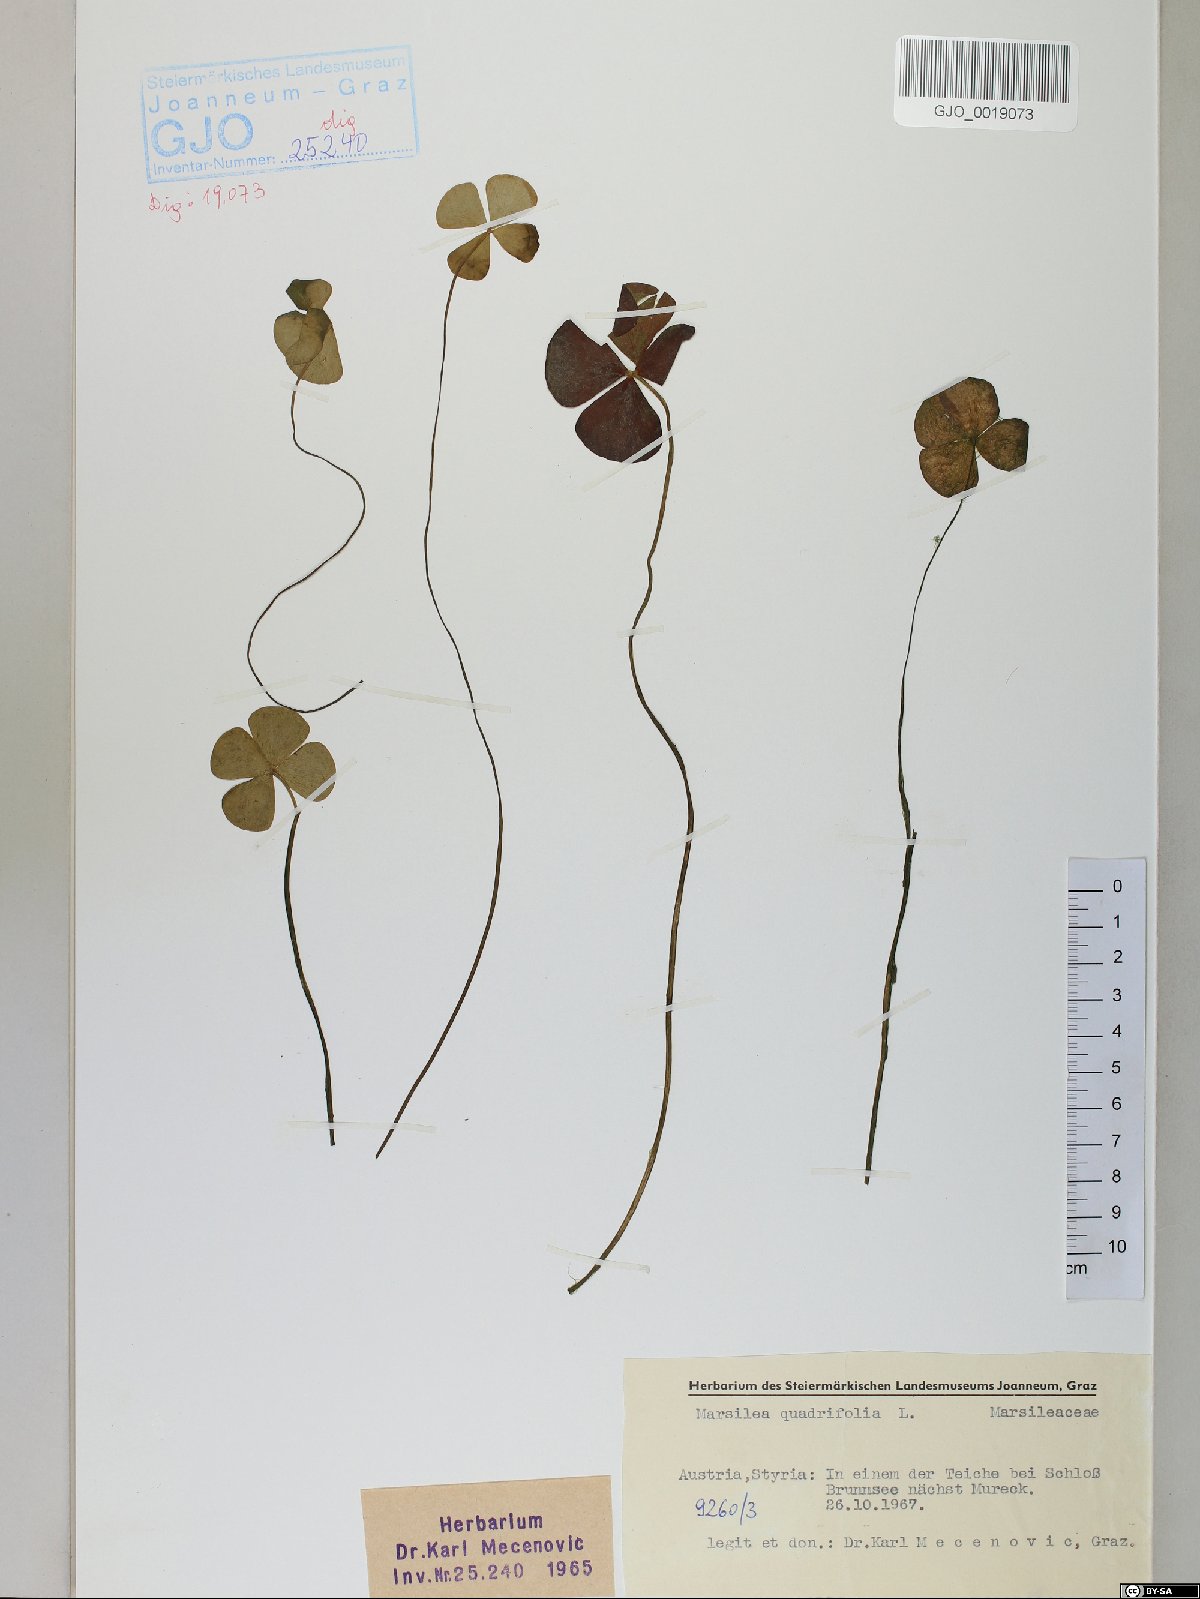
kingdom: Plantae
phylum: Tracheophyta
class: Polypodiopsida
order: Salviniales
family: Marsileaceae
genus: Marsilea
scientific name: Marsilea quadrifolia
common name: Water shamrock
